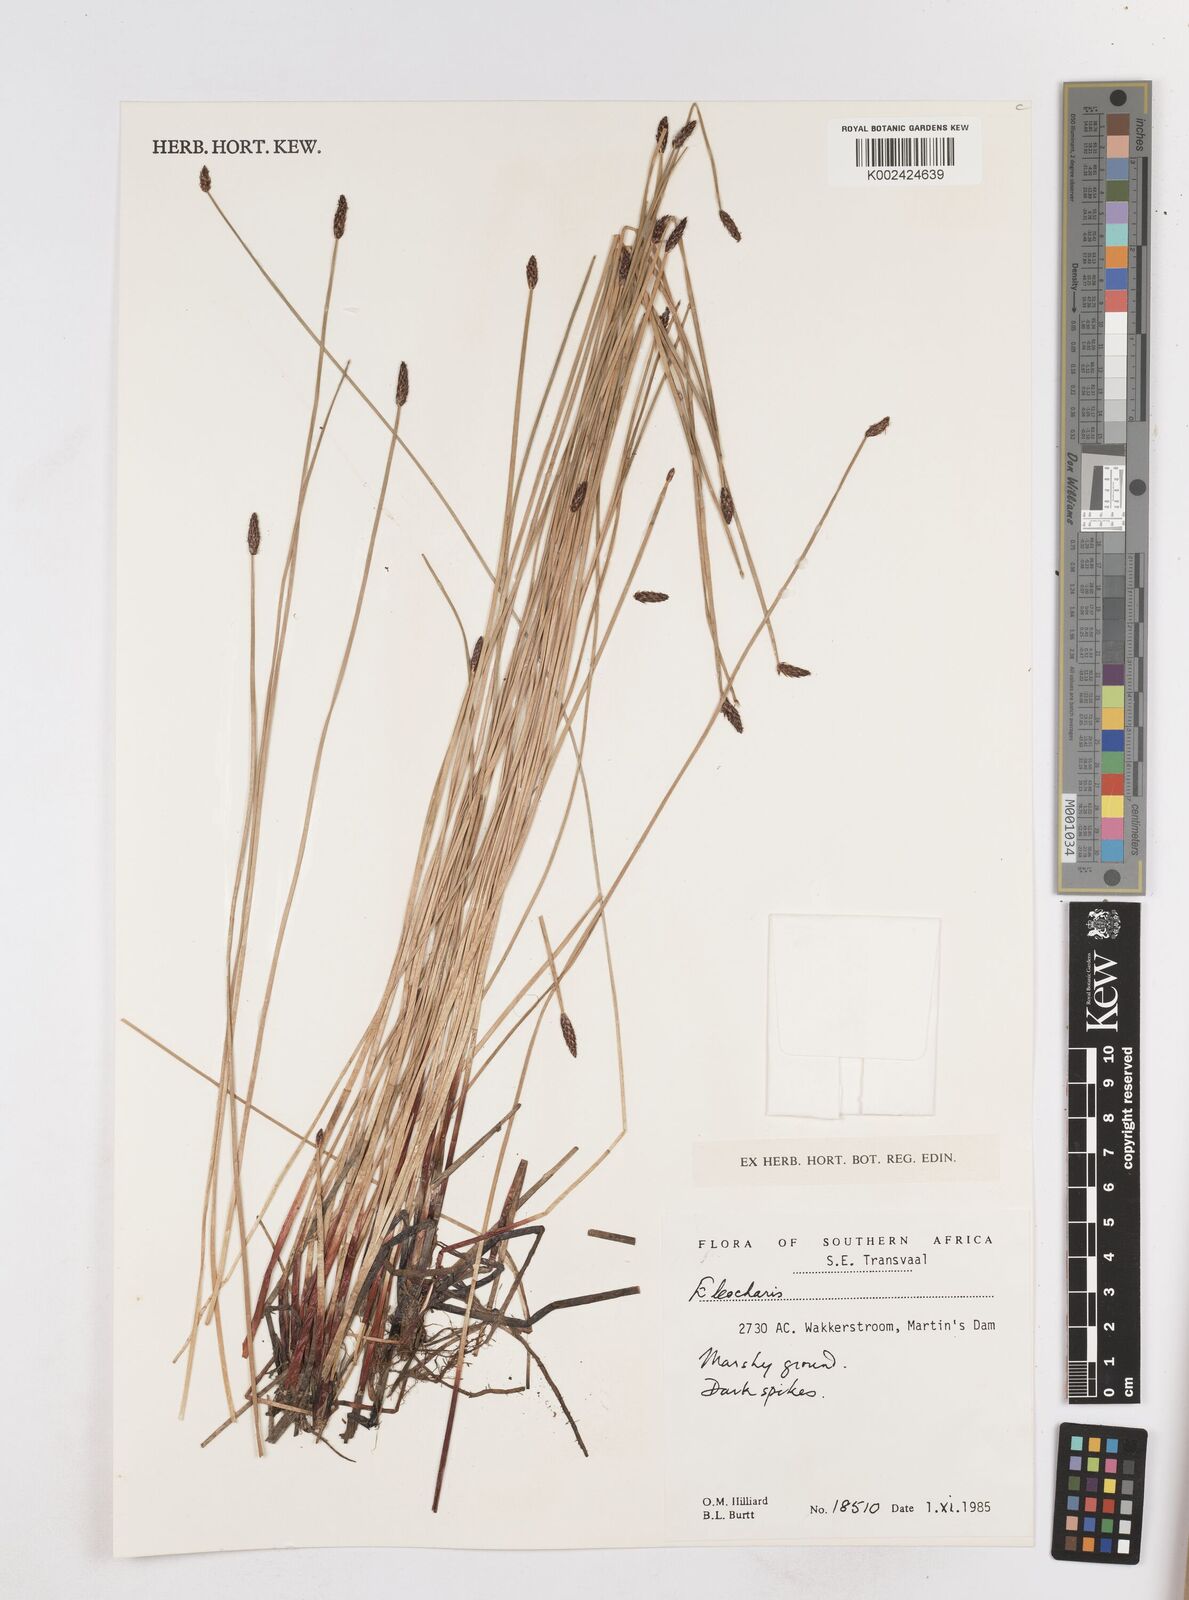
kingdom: Plantae
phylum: Tracheophyta
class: Liliopsida
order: Poales
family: Cyperaceae
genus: Eleocharis
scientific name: Eleocharis
